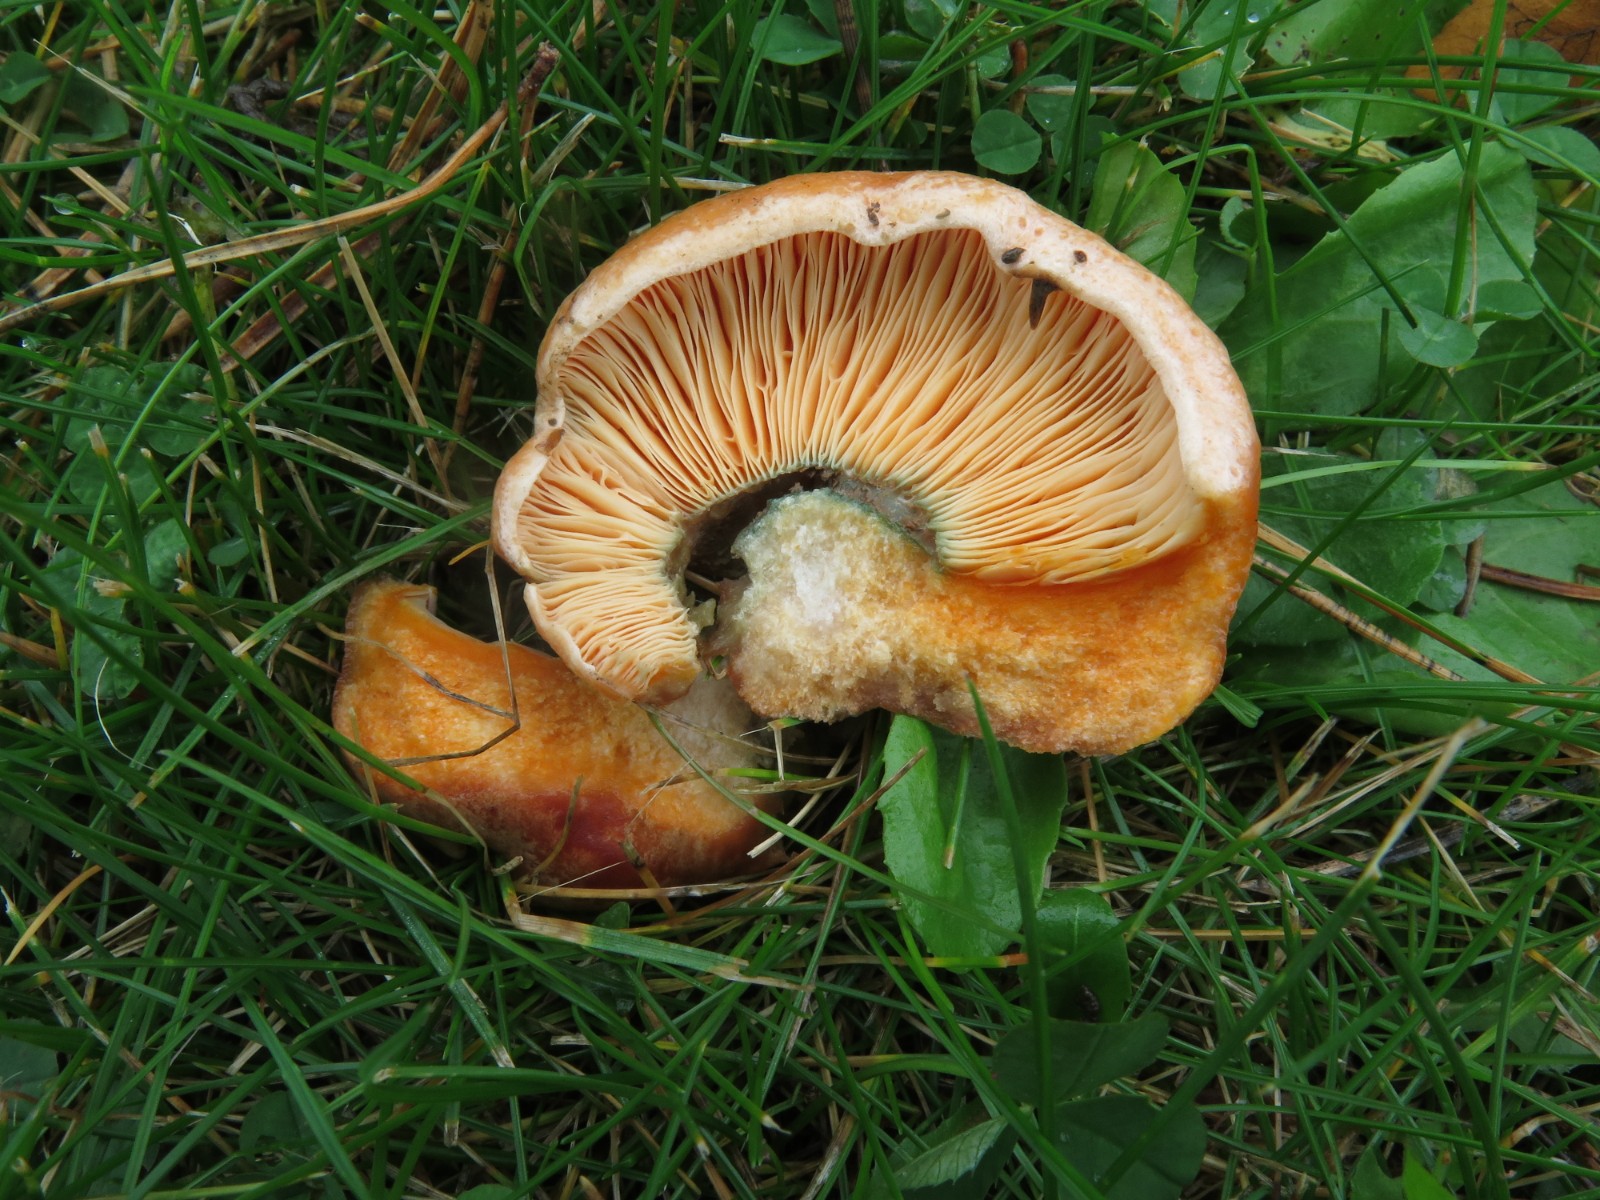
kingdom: Fungi
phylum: Basidiomycota
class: Agaricomycetes
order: Russulales
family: Russulaceae
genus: Lactarius
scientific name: Lactarius deliciosus
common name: velsmagende mælkehat
